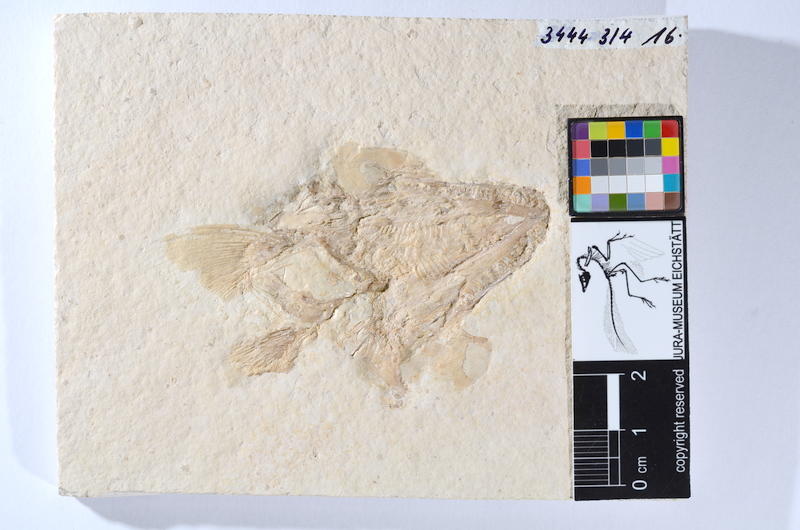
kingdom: Animalia
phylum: Chordata
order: Amiiformes
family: Caturidae
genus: Caturus
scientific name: Caturus
